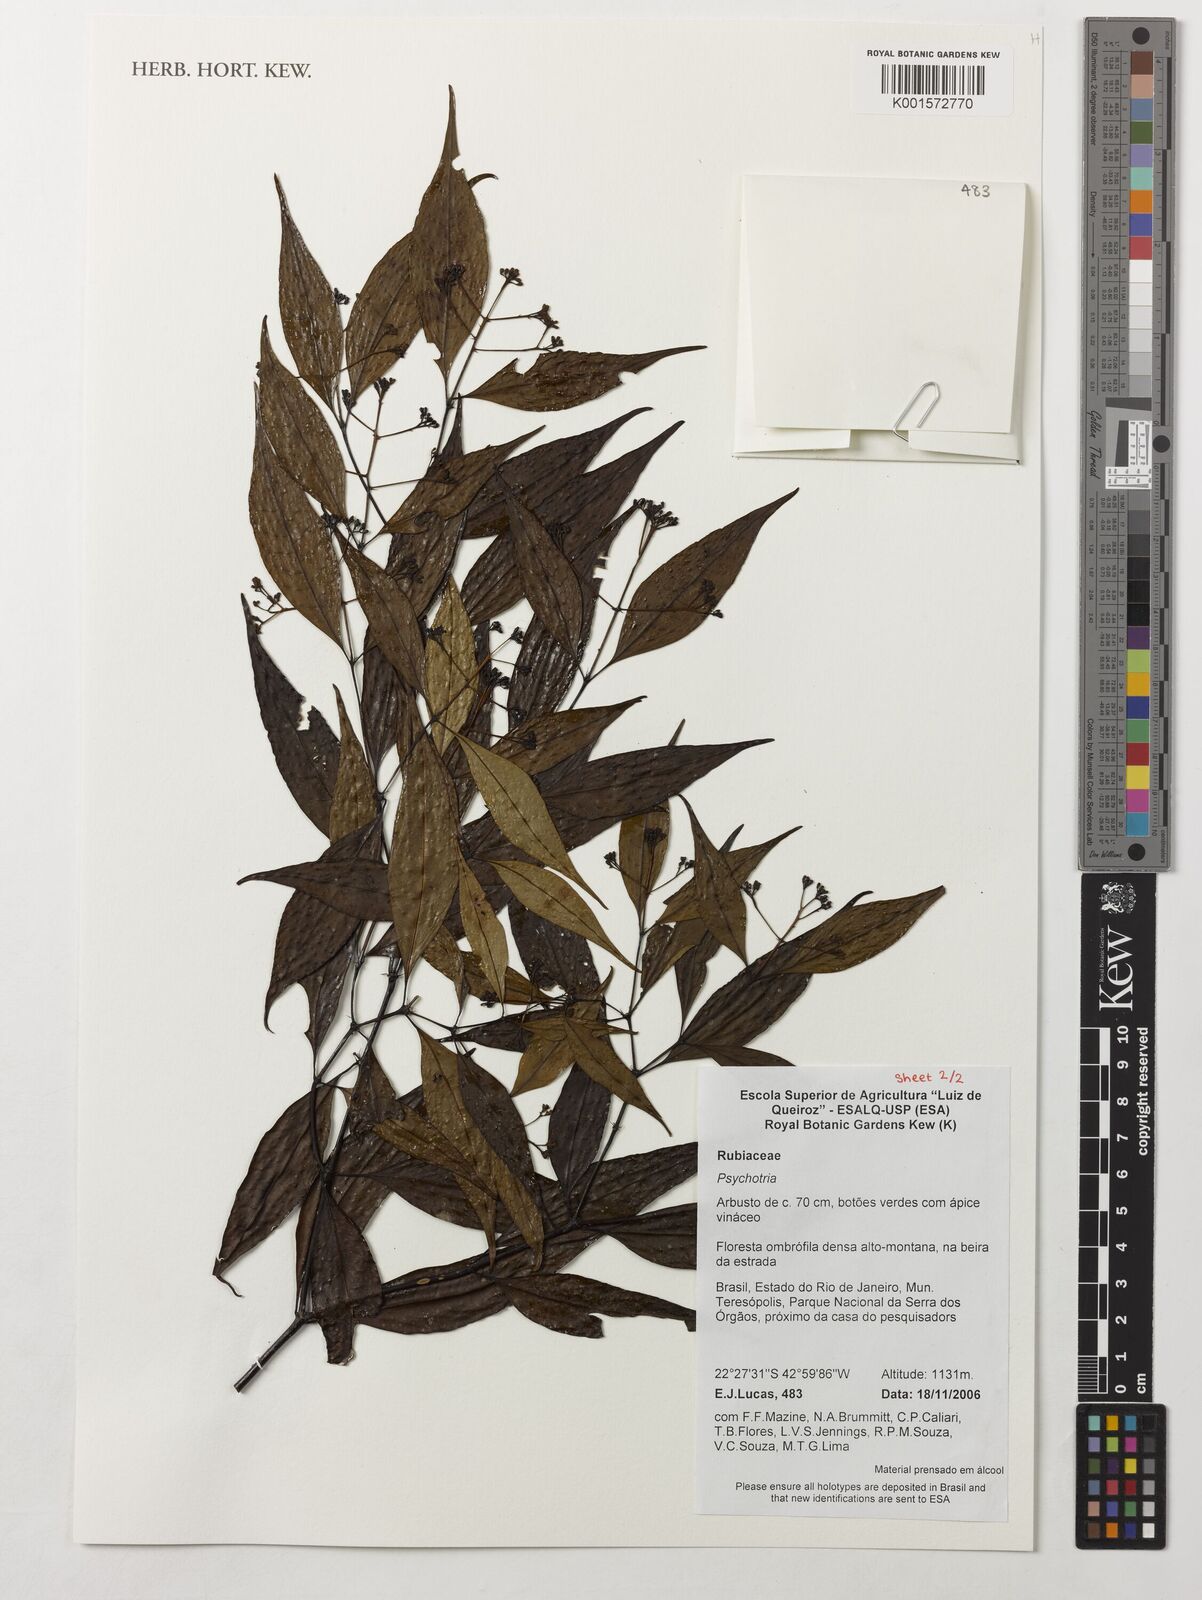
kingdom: Plantae
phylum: Tracheophyta
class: Magnoliopsida
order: Gentianales
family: Rubiaceae
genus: Psychotria
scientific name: Psychotria
